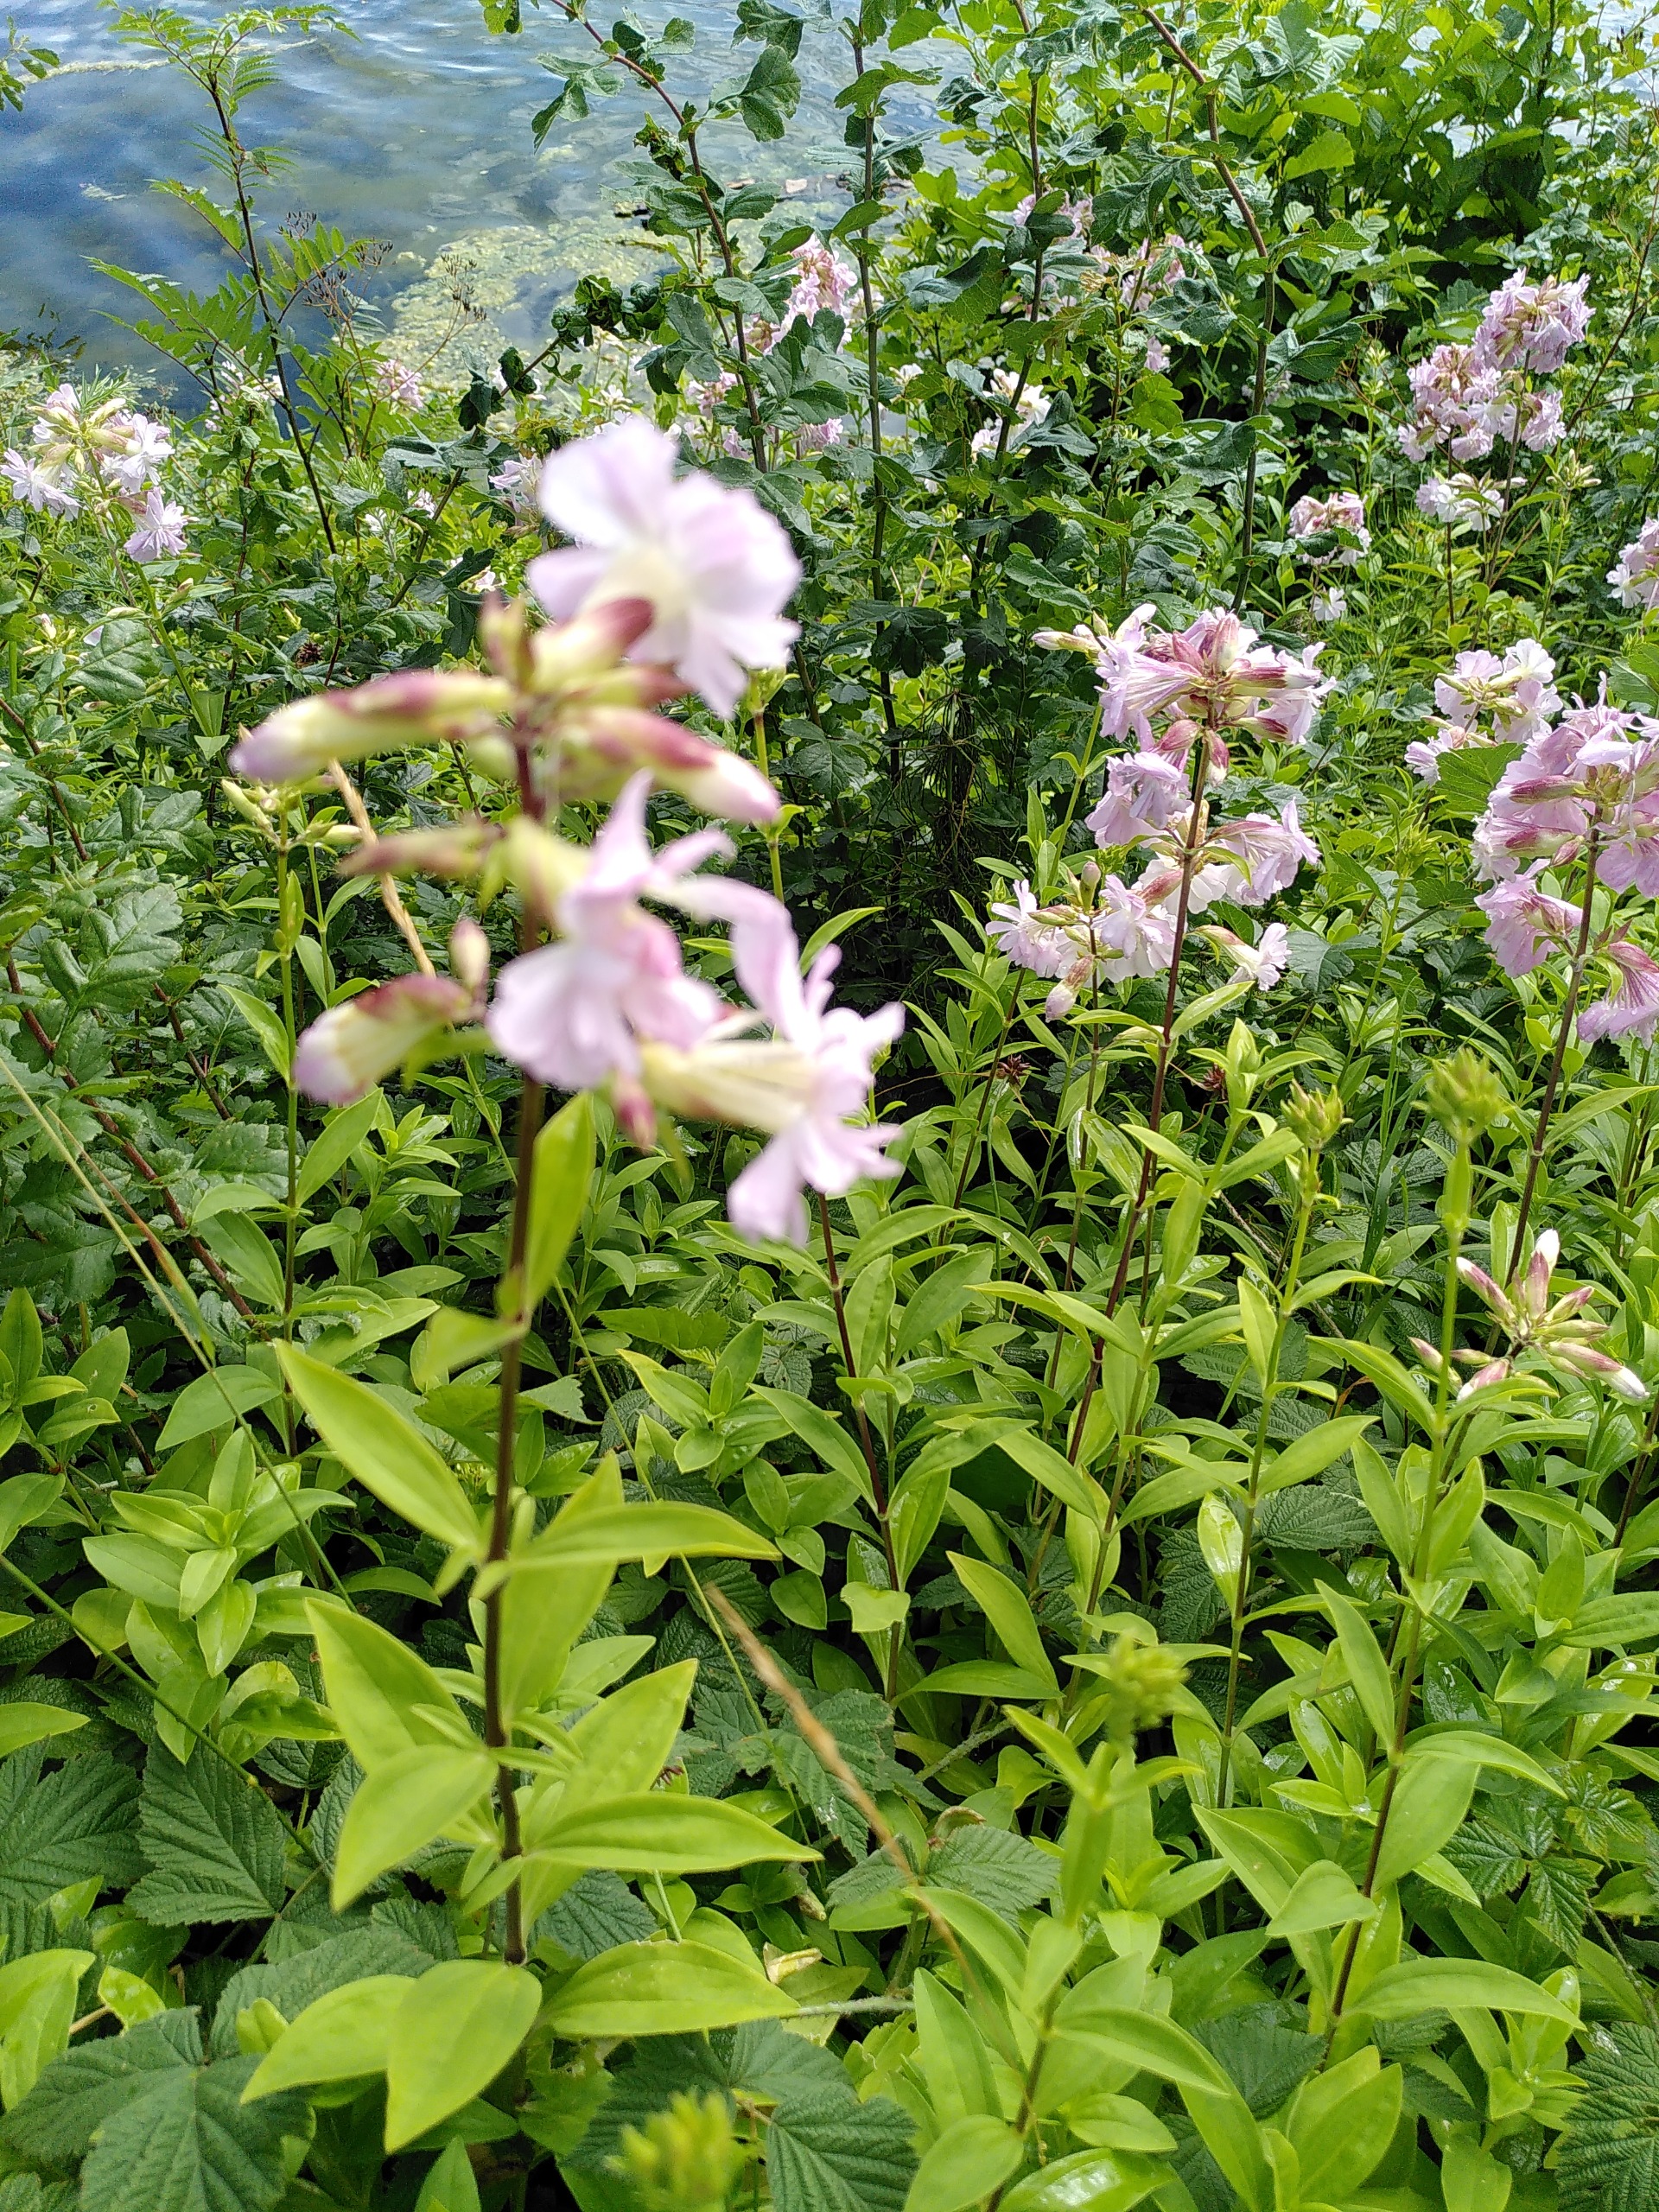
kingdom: Plantae
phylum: Tracheophyta
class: Magnoliopsida
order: Caryophyllales
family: Caryophyllaceae
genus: Saponaria
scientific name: Saponaria officinalis
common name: Sæbeurt
